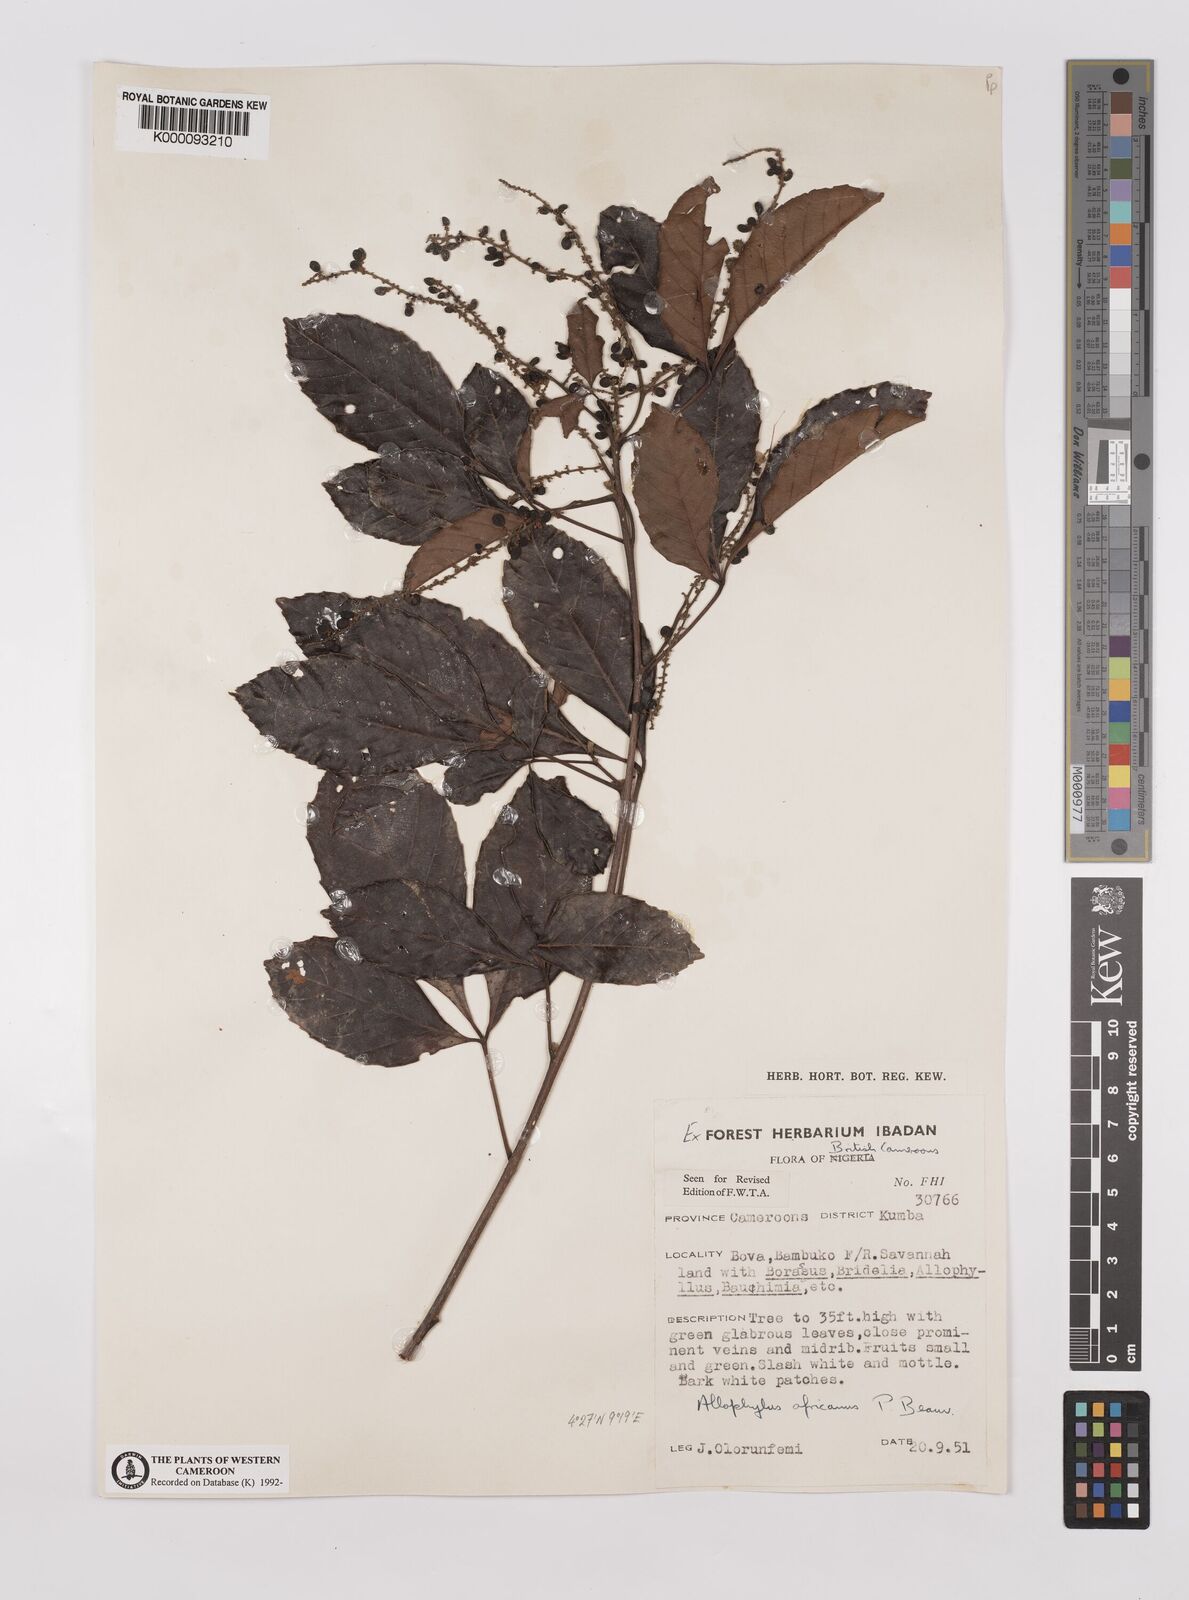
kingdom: Plantae
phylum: Tracheophyta
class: Magnoliopsida
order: Sapindales
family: Sapindaceae
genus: Allophylus
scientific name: Allophylus africanus
